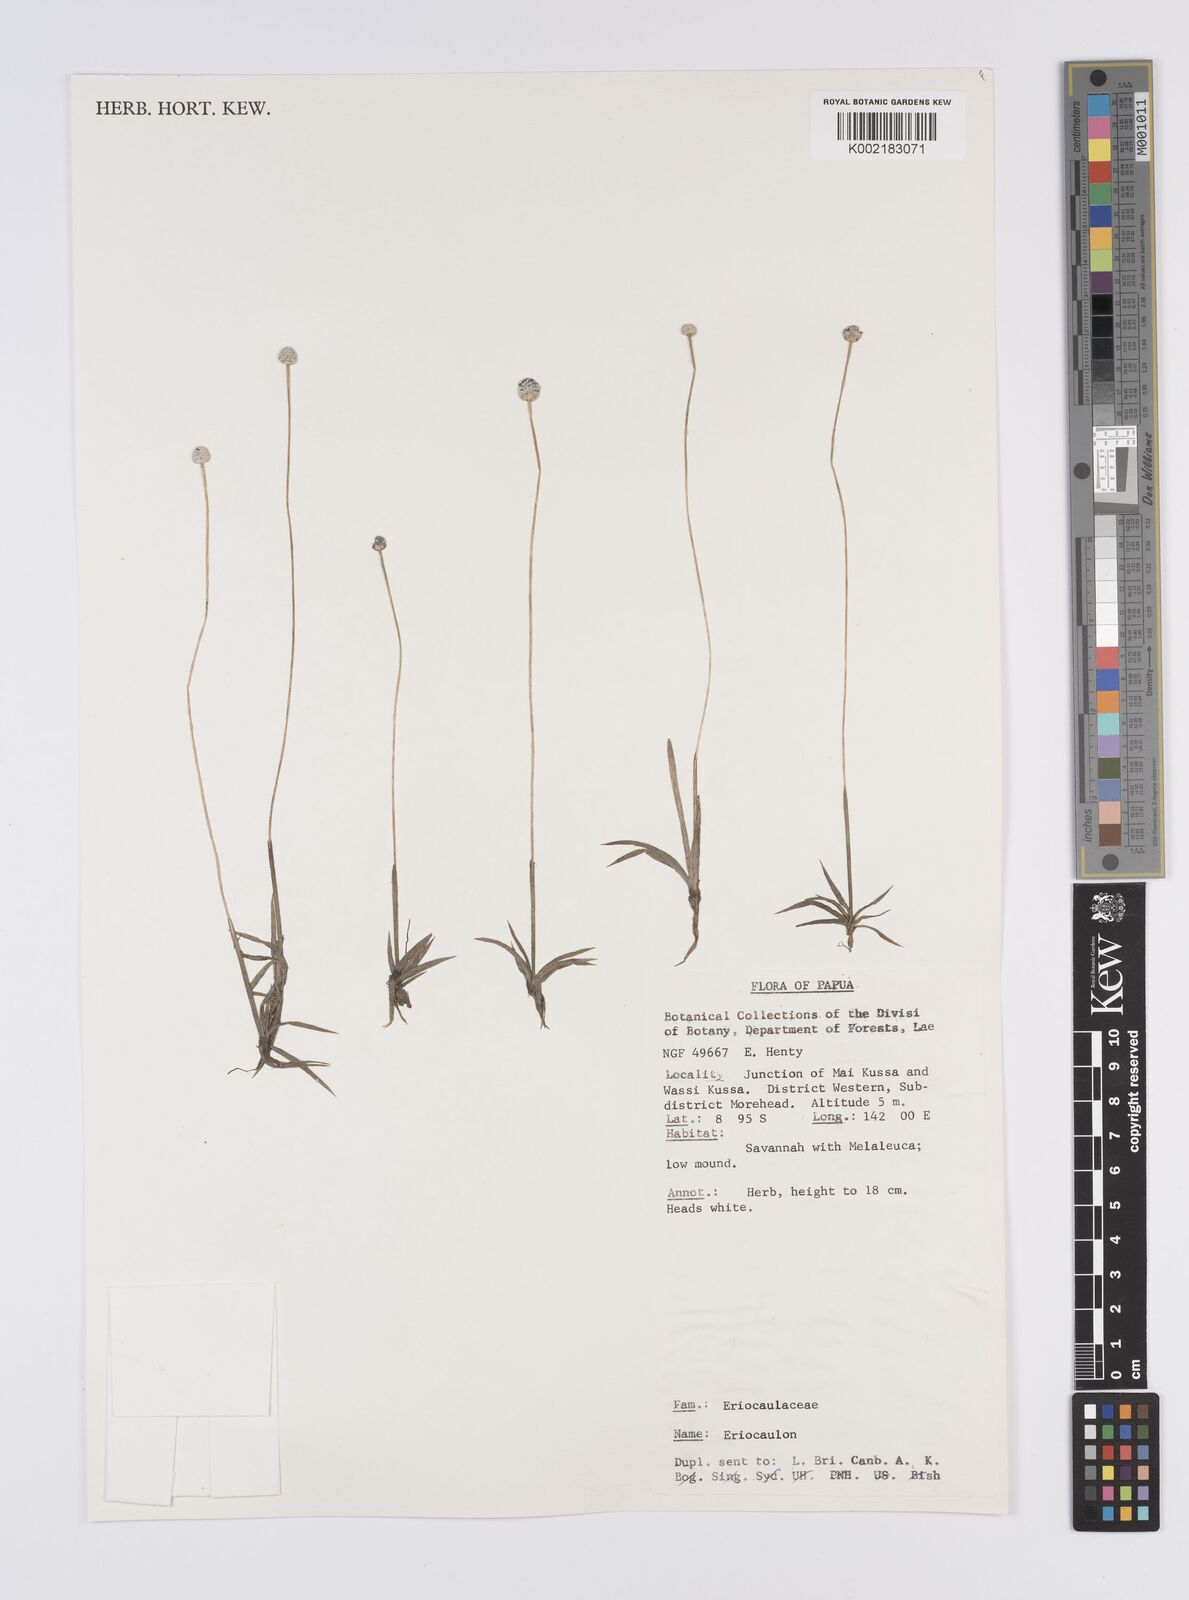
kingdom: Plantae
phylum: Tracheophyta
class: Liliopsida
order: Poales
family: Eriocaulaceae
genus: Eriocaulon
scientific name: Eriocaulon
